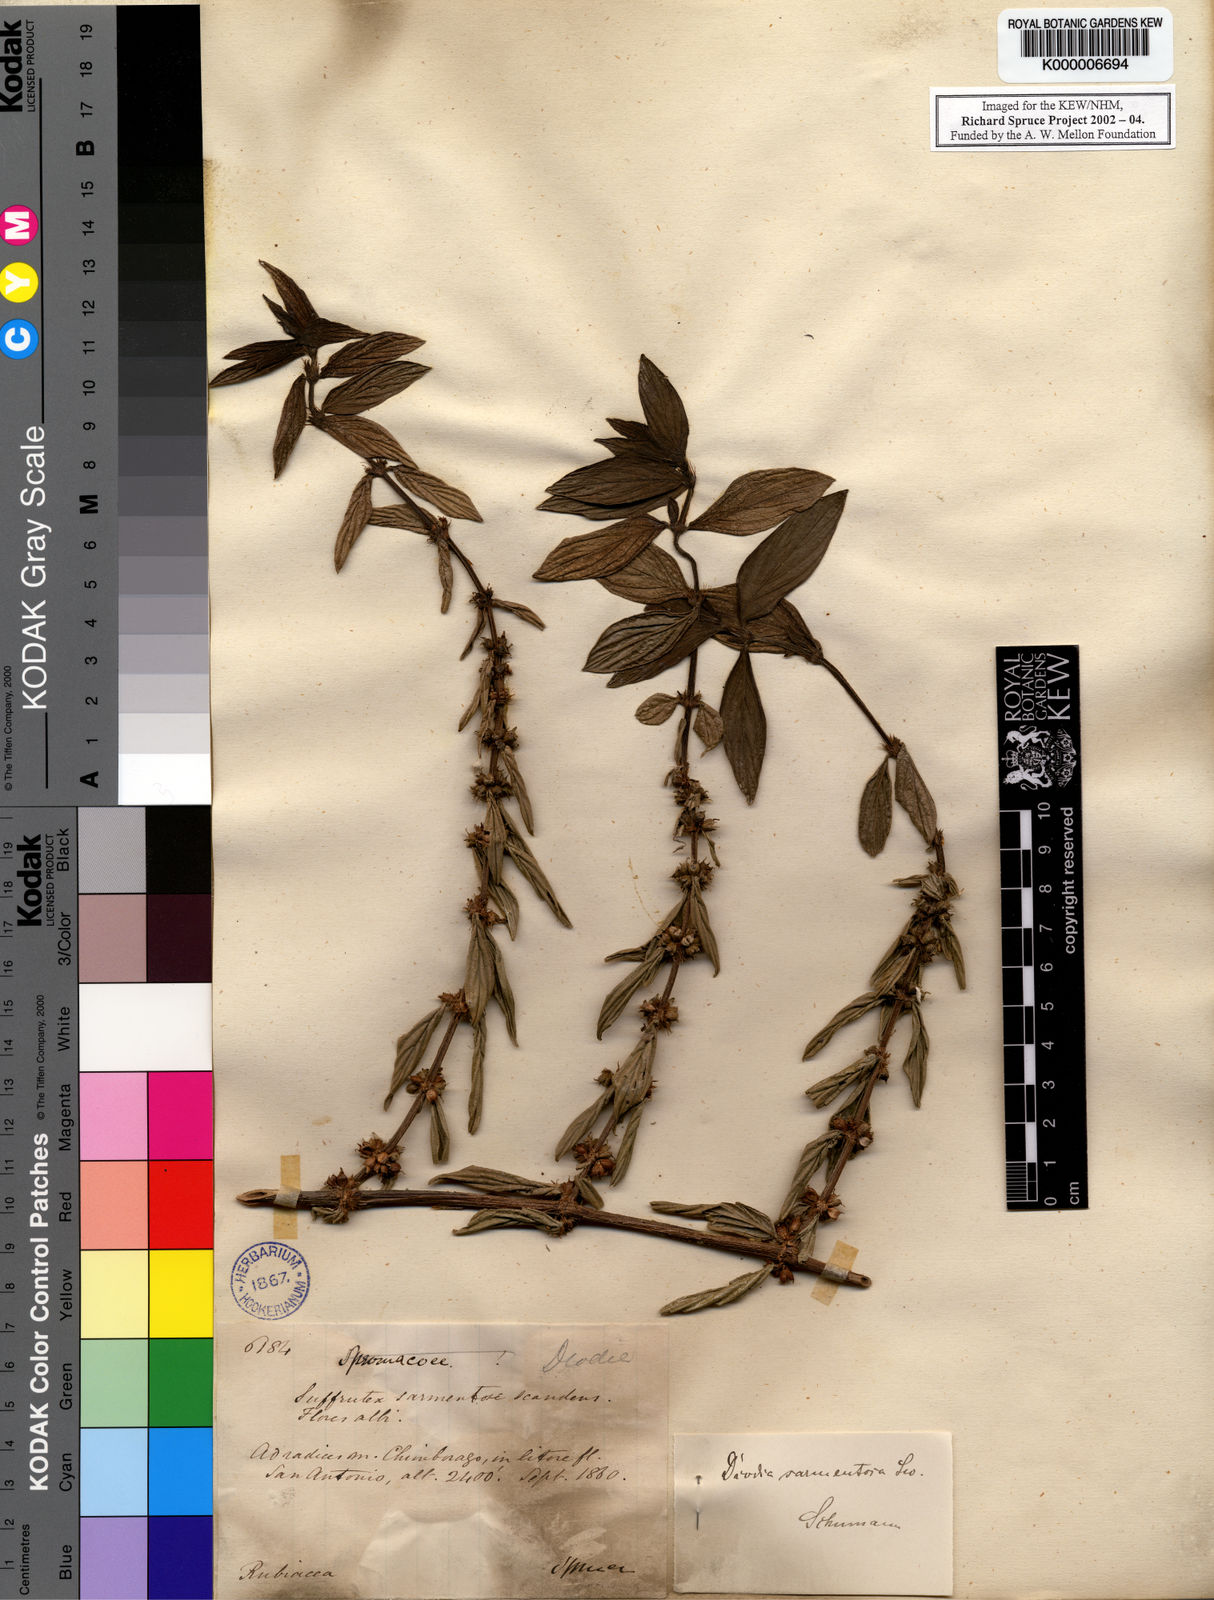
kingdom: Plantae
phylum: Tracheophyta
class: Magnoliopsida
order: Gentianales
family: Rubiaceae
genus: Hexasepalum
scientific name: Hexasepalum sarmentosum
